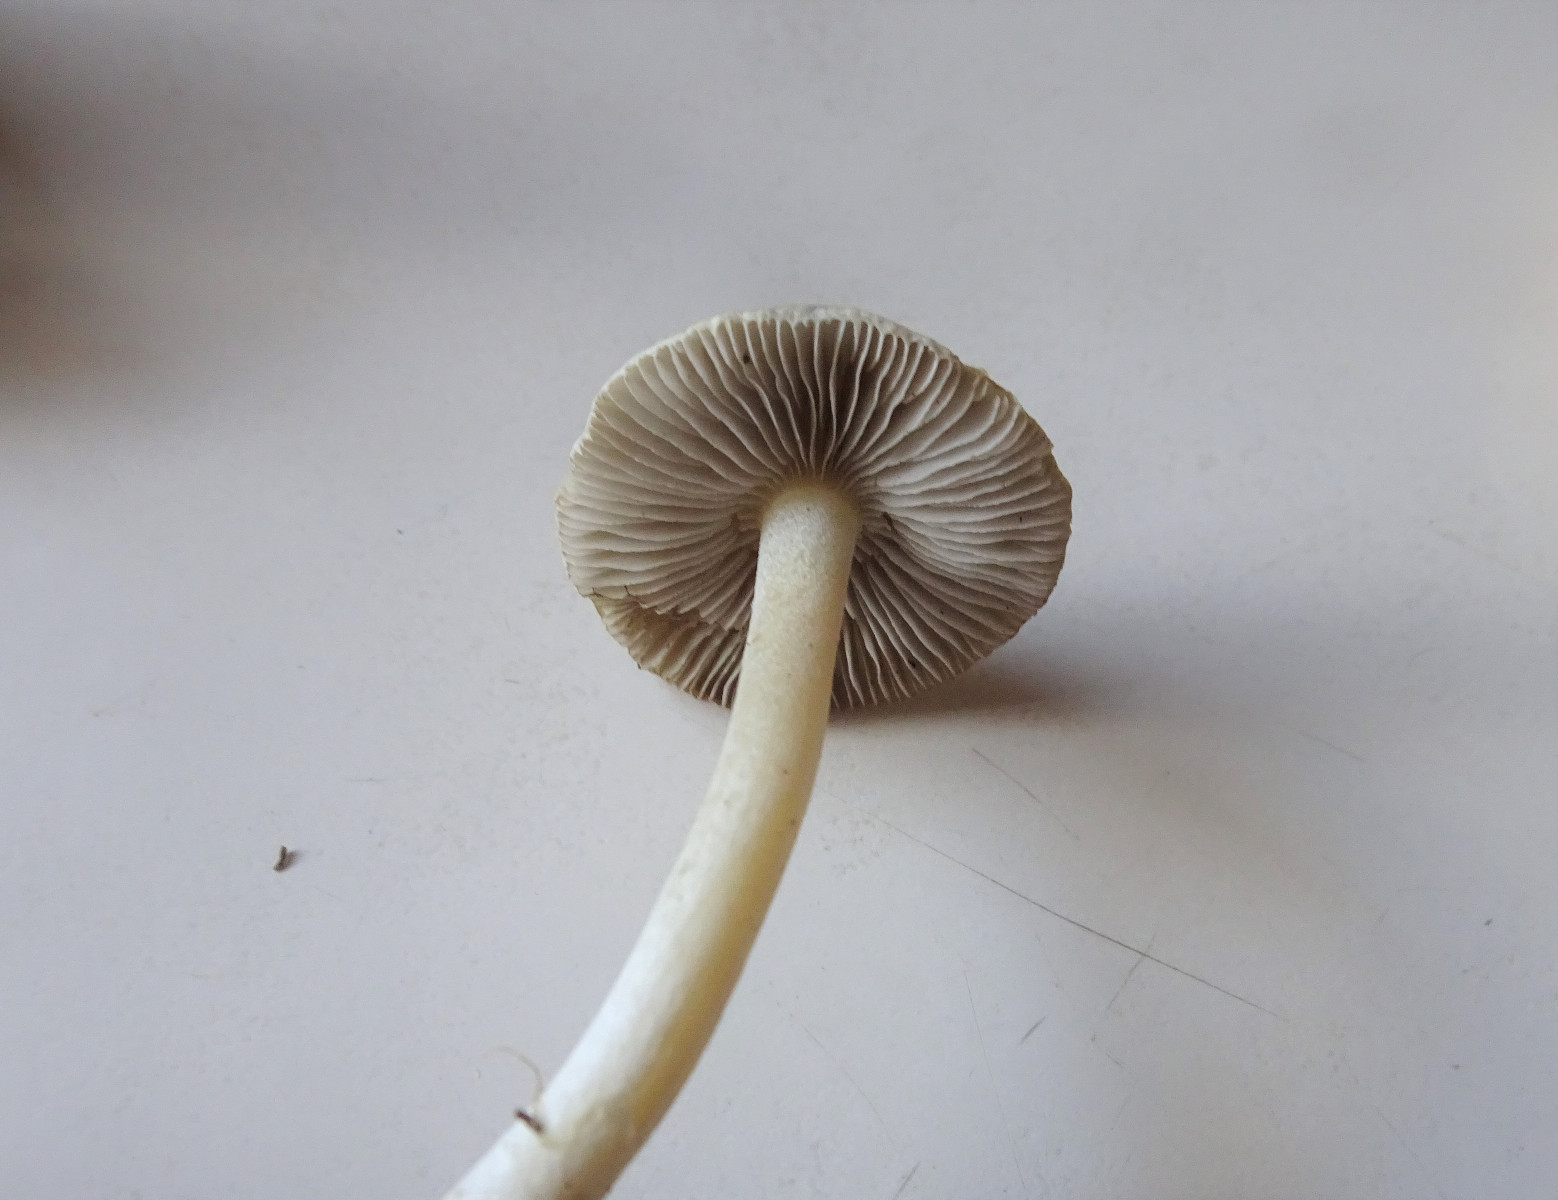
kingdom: Fungi
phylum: Basidiomycota
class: Agaricomycetes
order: Agaricales
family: Inocybaceae
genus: Inocybe
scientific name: Inocybe
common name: almindelig trævlhat
